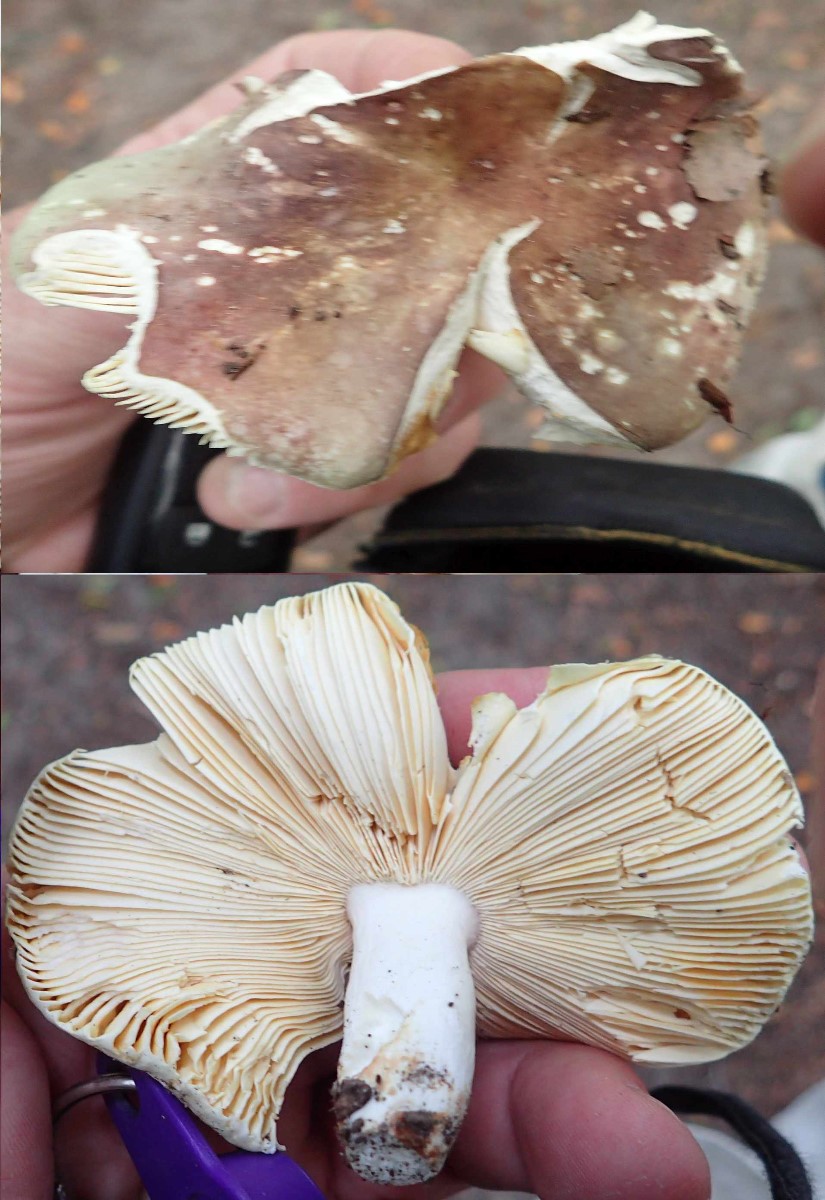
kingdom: Fungi
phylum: Basidiomycota
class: Agaricomycetes
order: Russulales
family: Russulaceae
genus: Russula
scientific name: Russula olivacea
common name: stor skørhat
